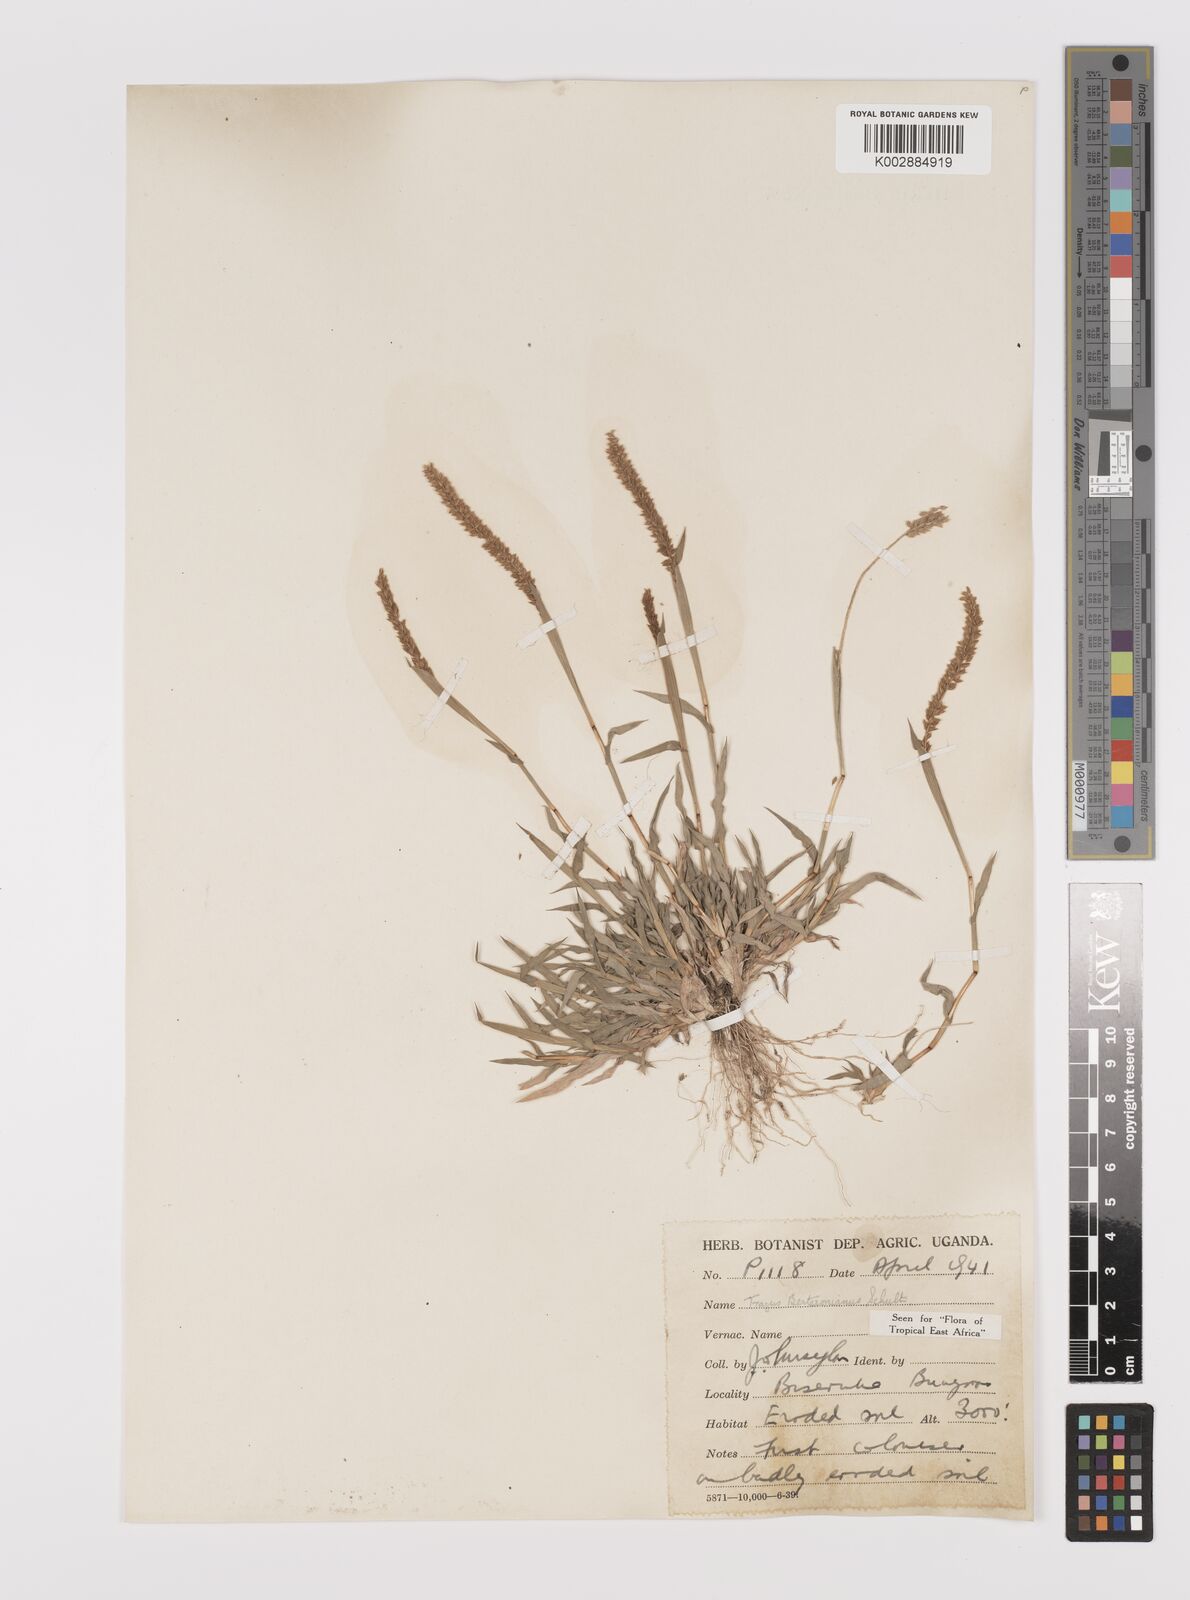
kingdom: Plantae
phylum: Tracheophyta
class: Liliopsida
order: Poales
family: Poaceae
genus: Tragus
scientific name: Tragus berteronianus
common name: African bur-grass
